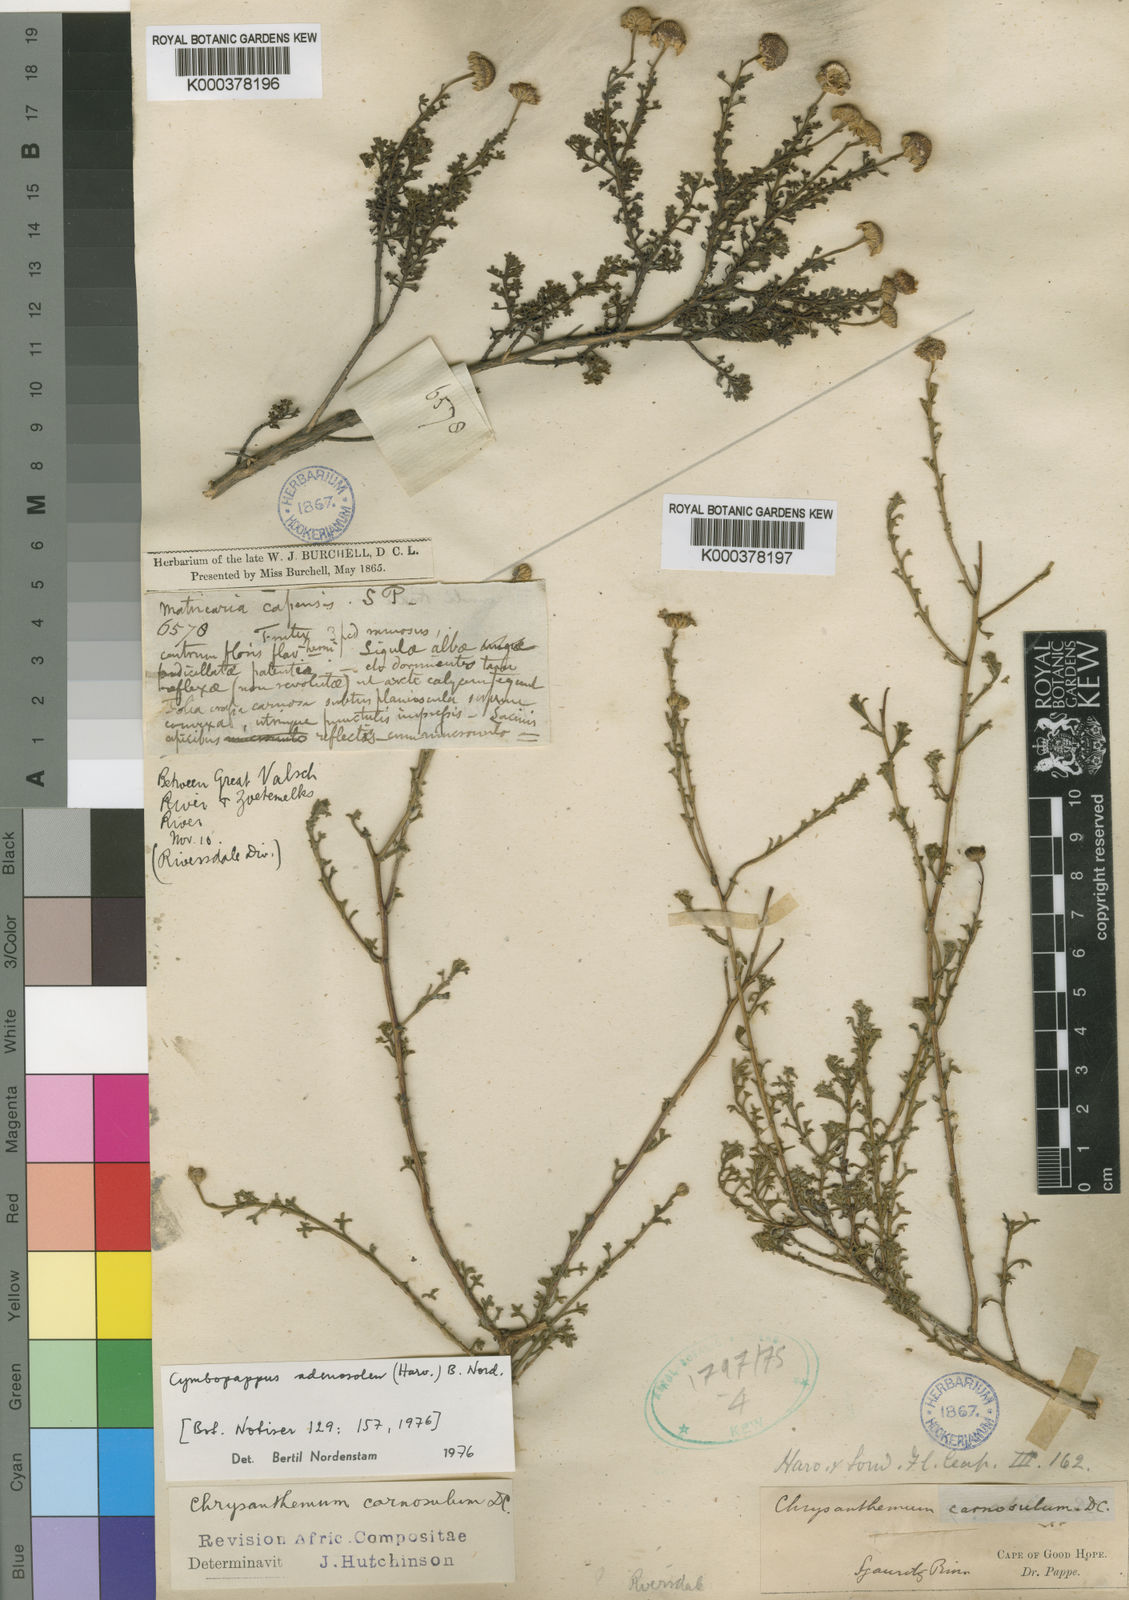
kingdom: Plantae
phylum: Tracheophyta
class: Magnoliopsida
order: Asterales
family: Asteraceae
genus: Cymbopappus
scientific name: Cymbopappus adenosolen
